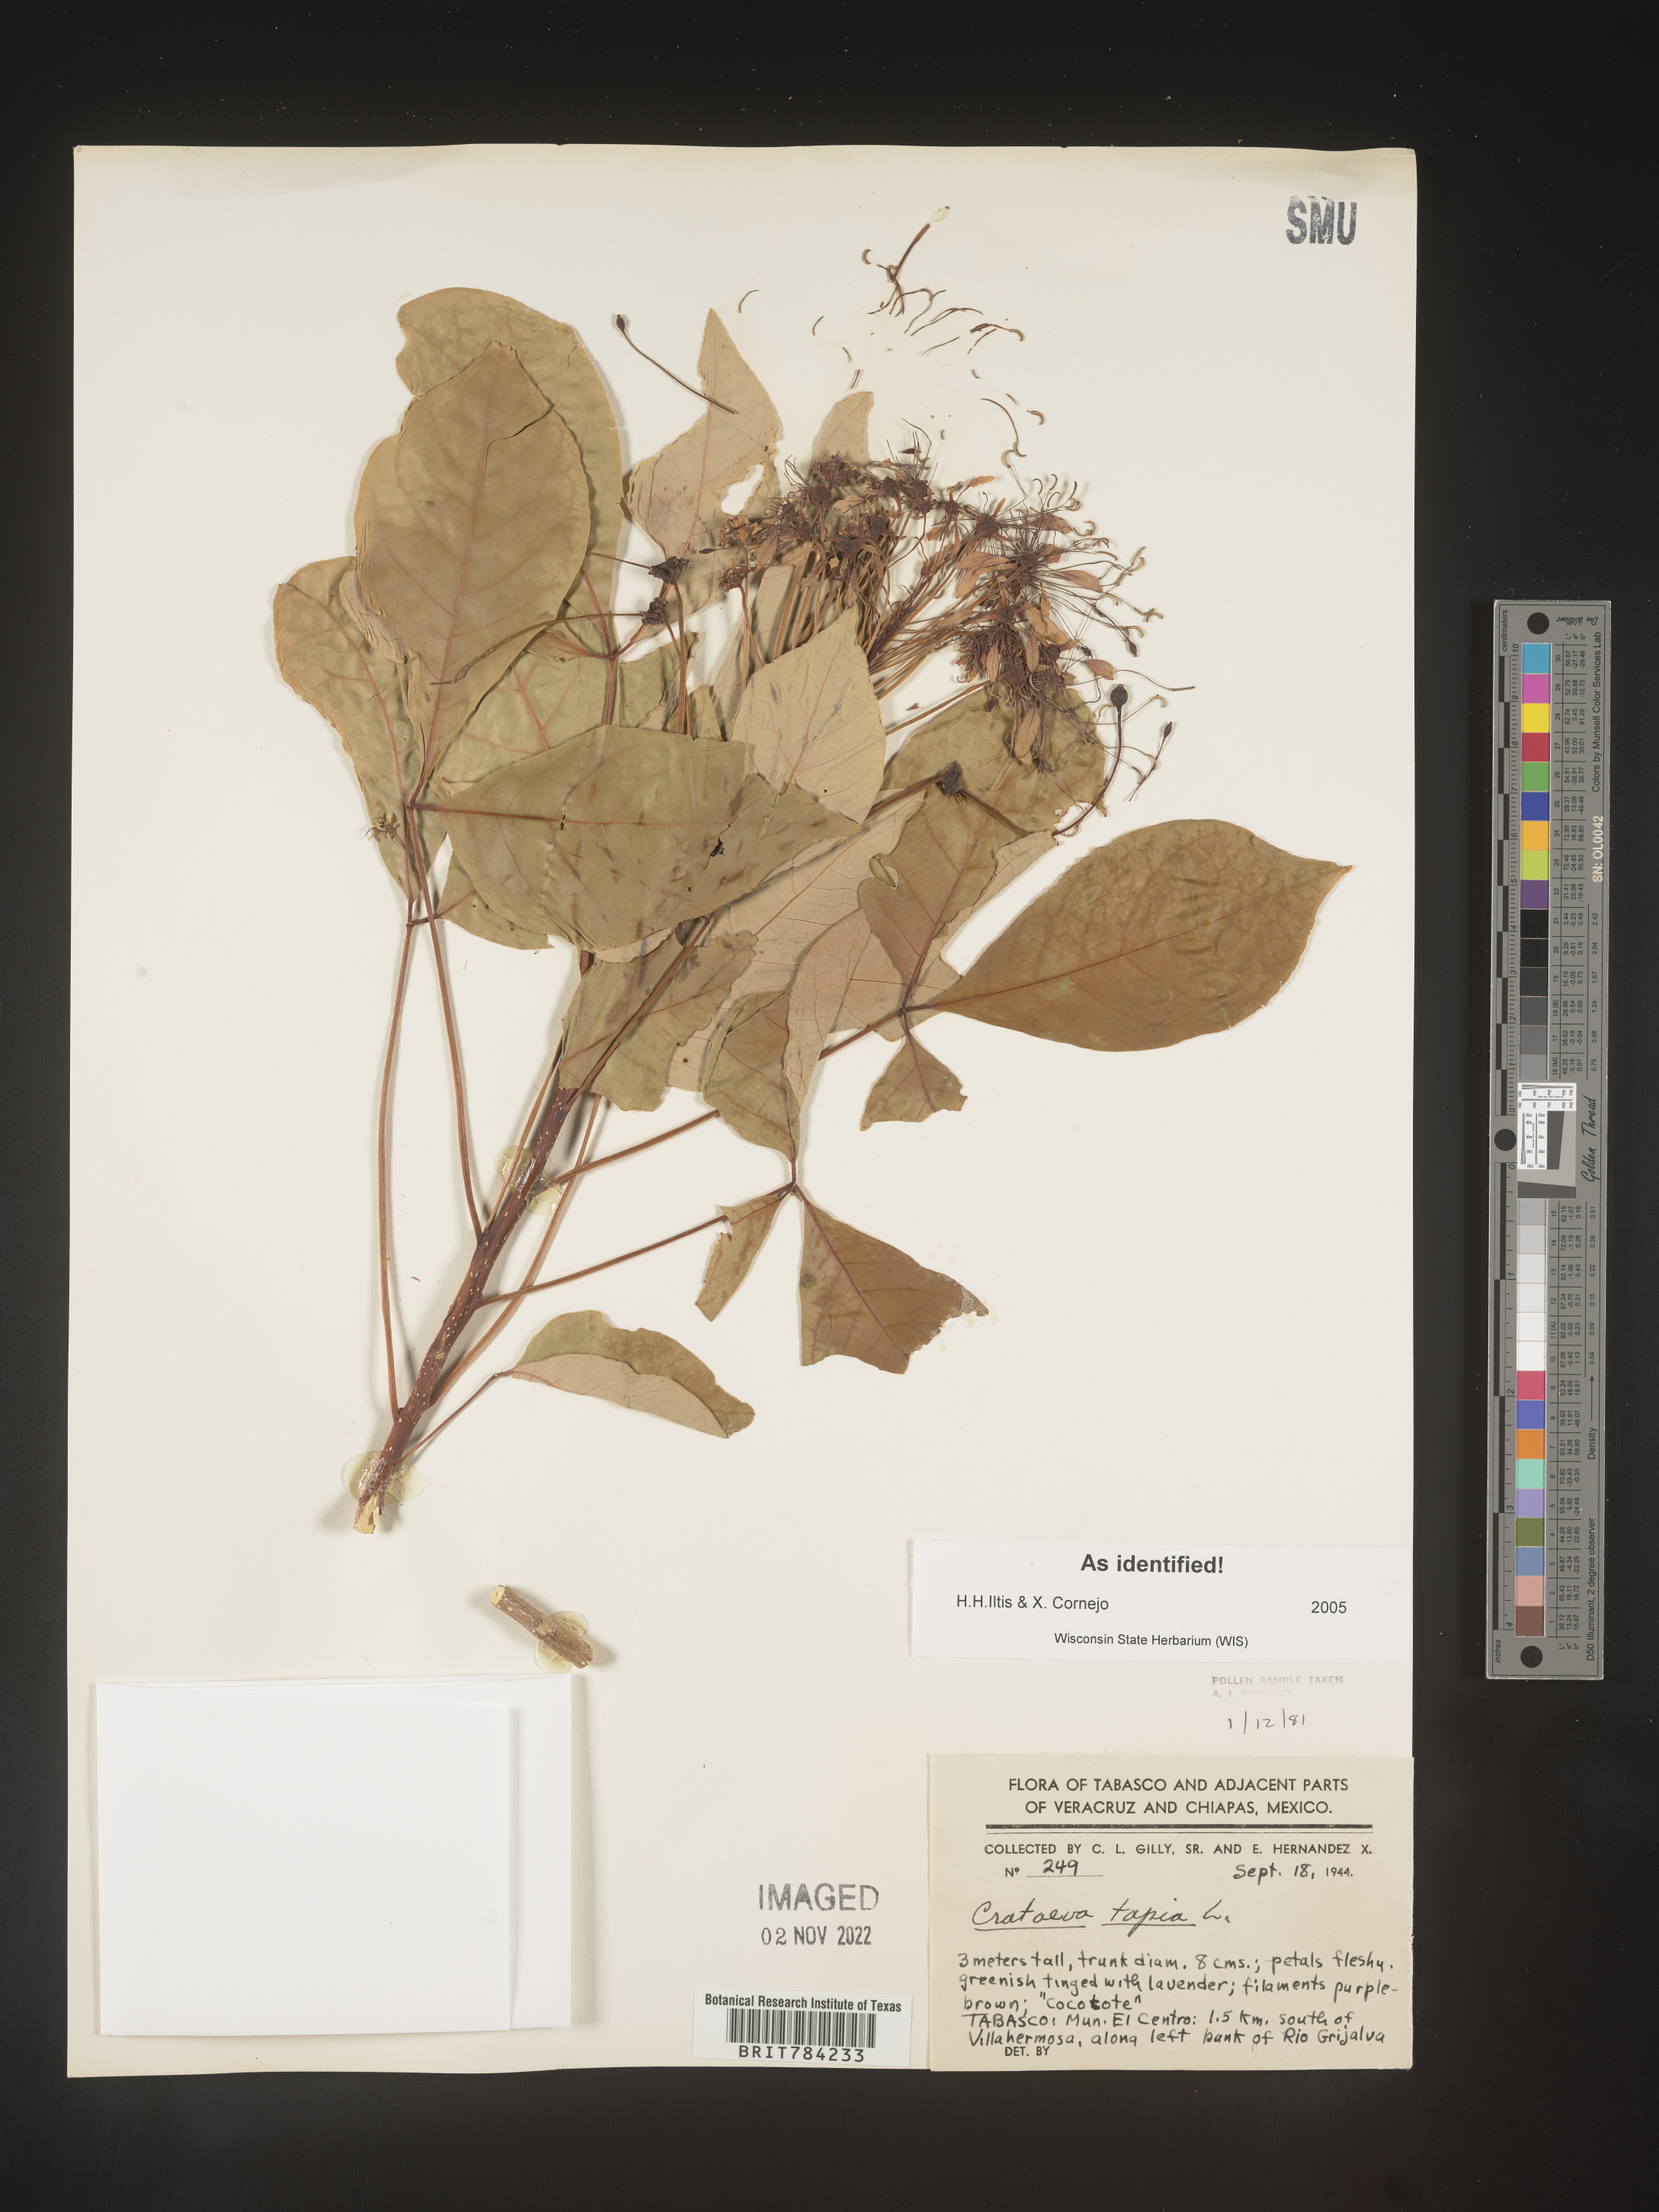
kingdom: Plantae
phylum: Tracheophyta
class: Magnoliopsida
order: Brassicales
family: Capparaceae
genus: Crateva
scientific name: Crateva
